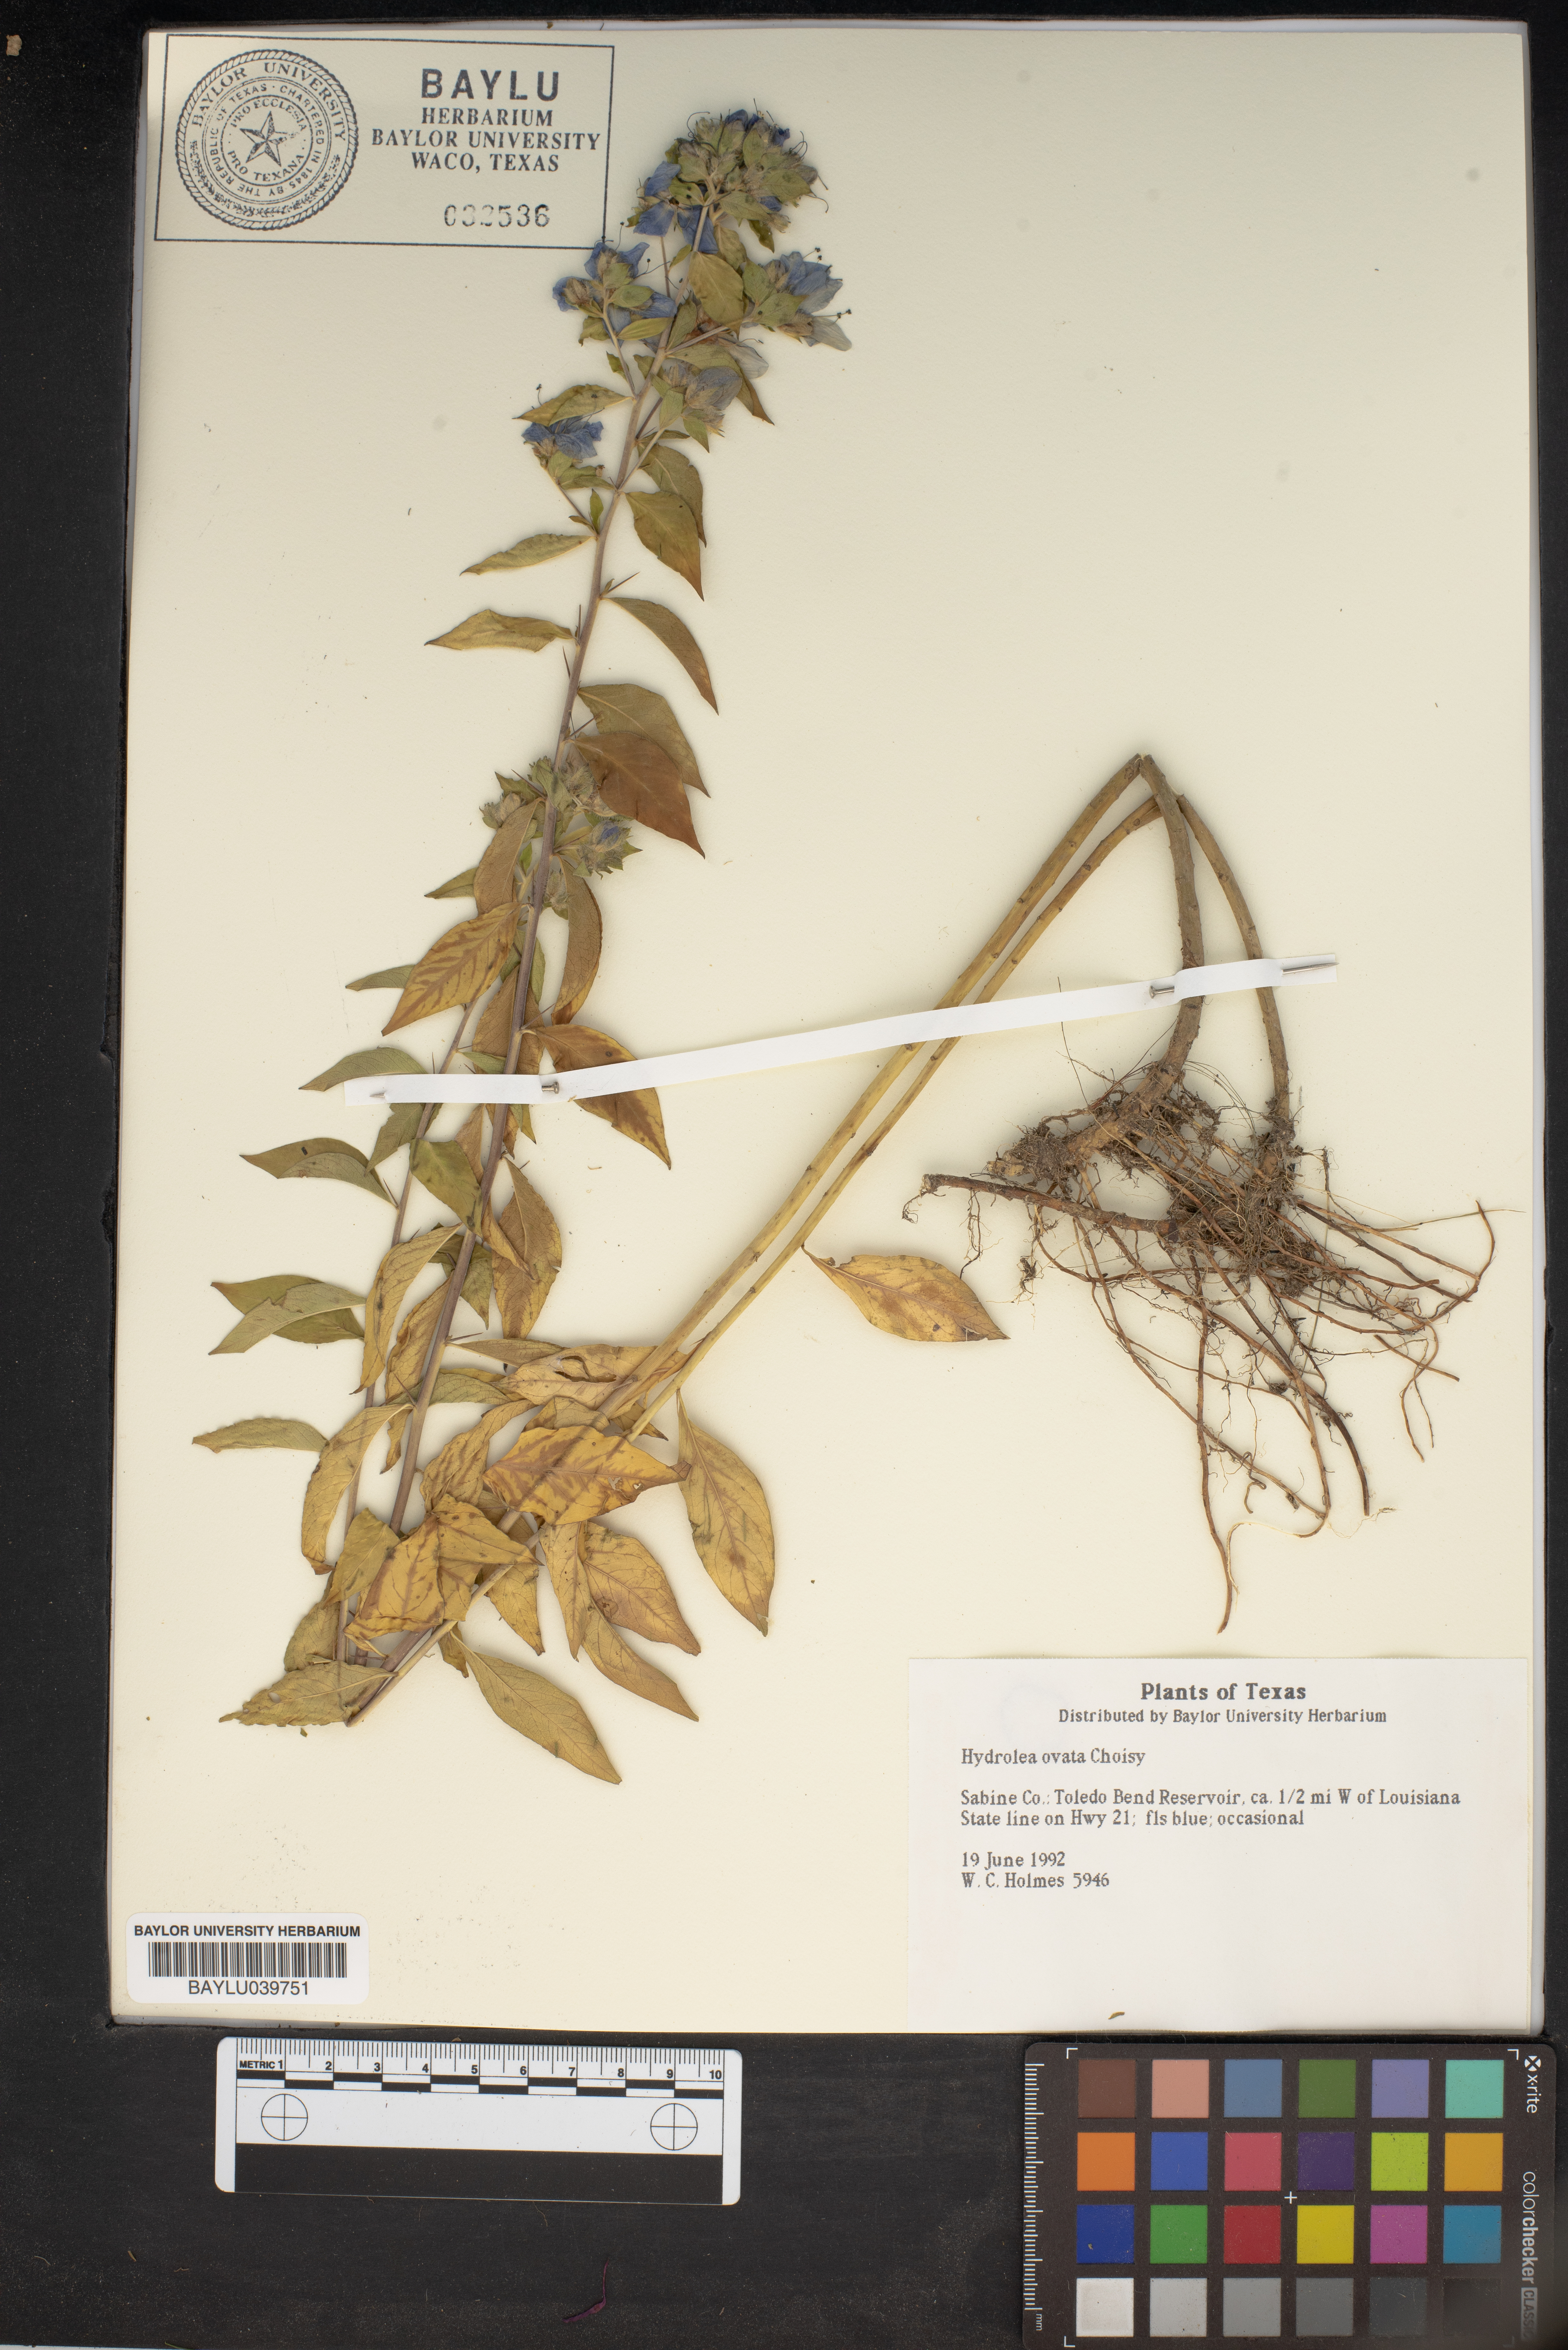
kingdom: Plantae
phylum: Tracheophyta
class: Magnoliopsida
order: Solanales
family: Hydroleaceae
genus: Hydrolea
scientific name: Hydrolea ovata
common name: Ovate false fiddleleaf
